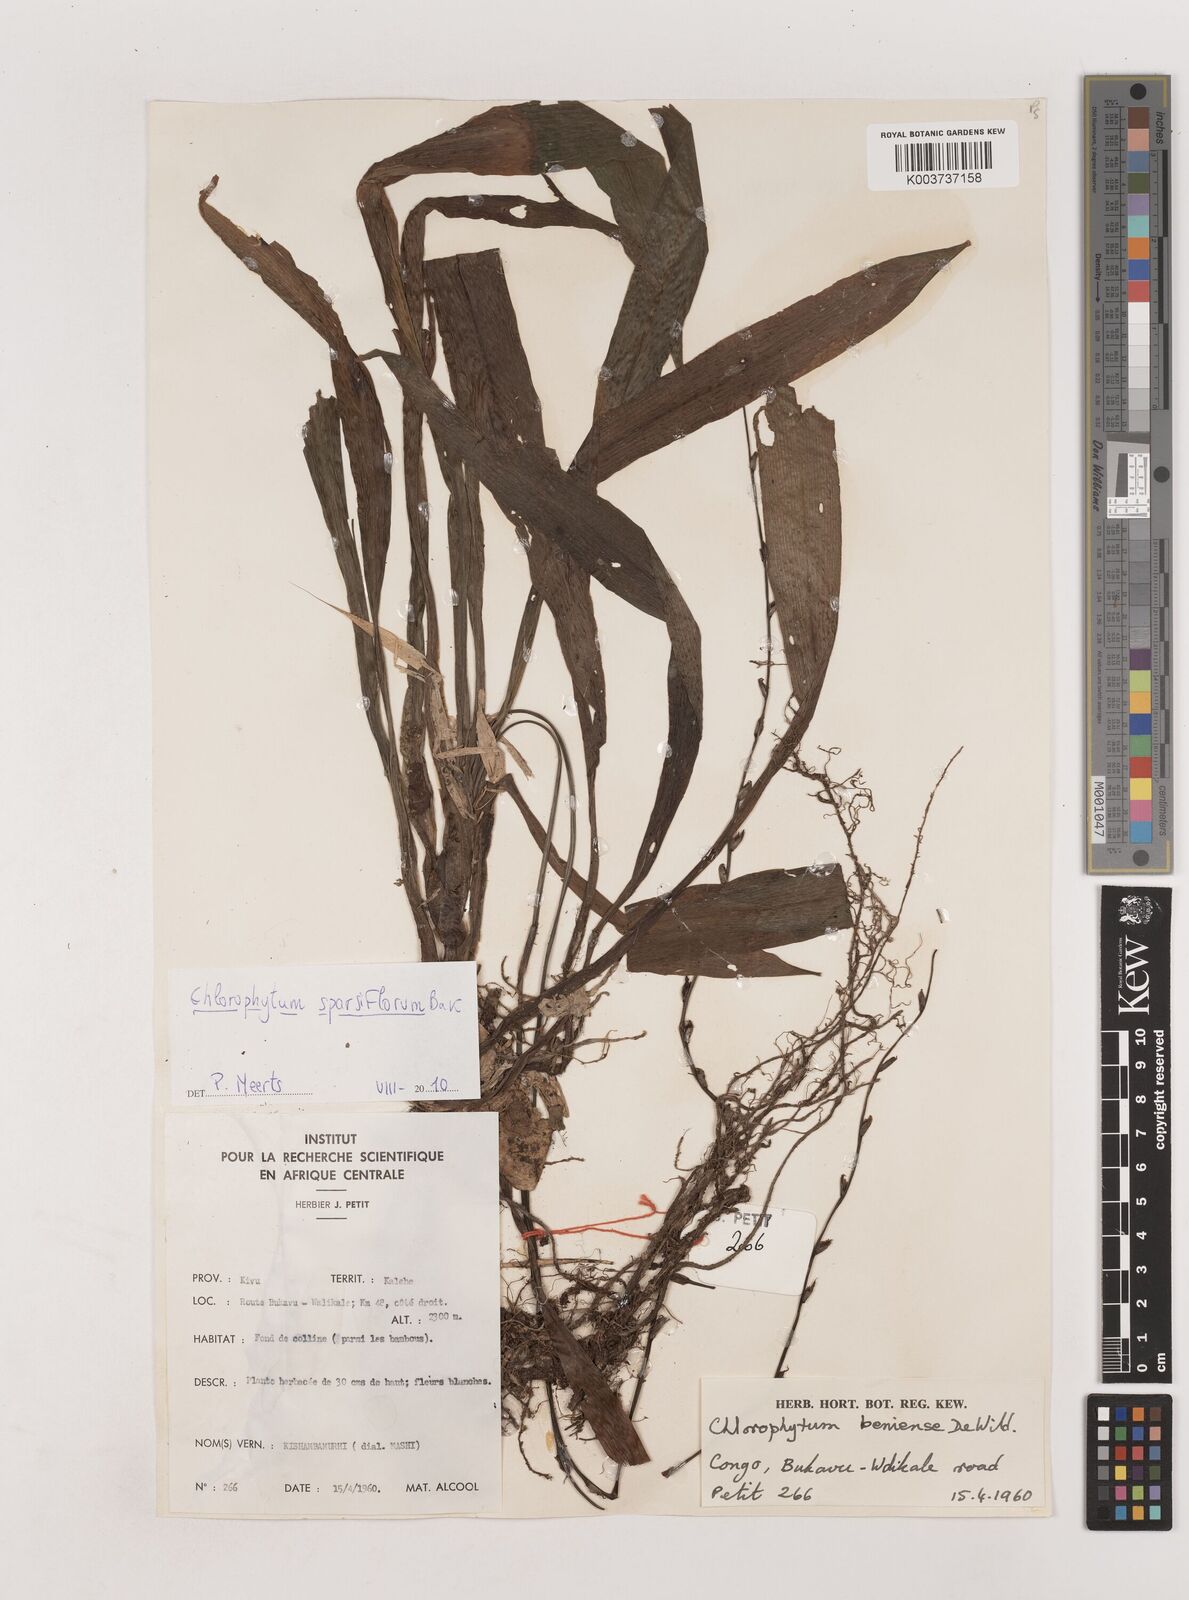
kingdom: Plantae
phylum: Tracheophyta
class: Liliopsida
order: Asparagales
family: Asparagaceae
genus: Chlorophytum
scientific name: Chlorophytum sparsiflorum
